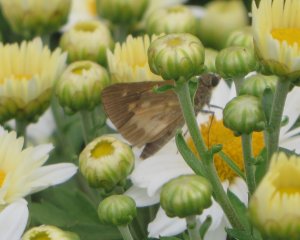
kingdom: Animalia
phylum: Arthropoda
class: Insecta
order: Lepidoptera
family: Hesperiidae
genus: Poanes
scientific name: Poanes viator
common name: Broad-winged Skipper
